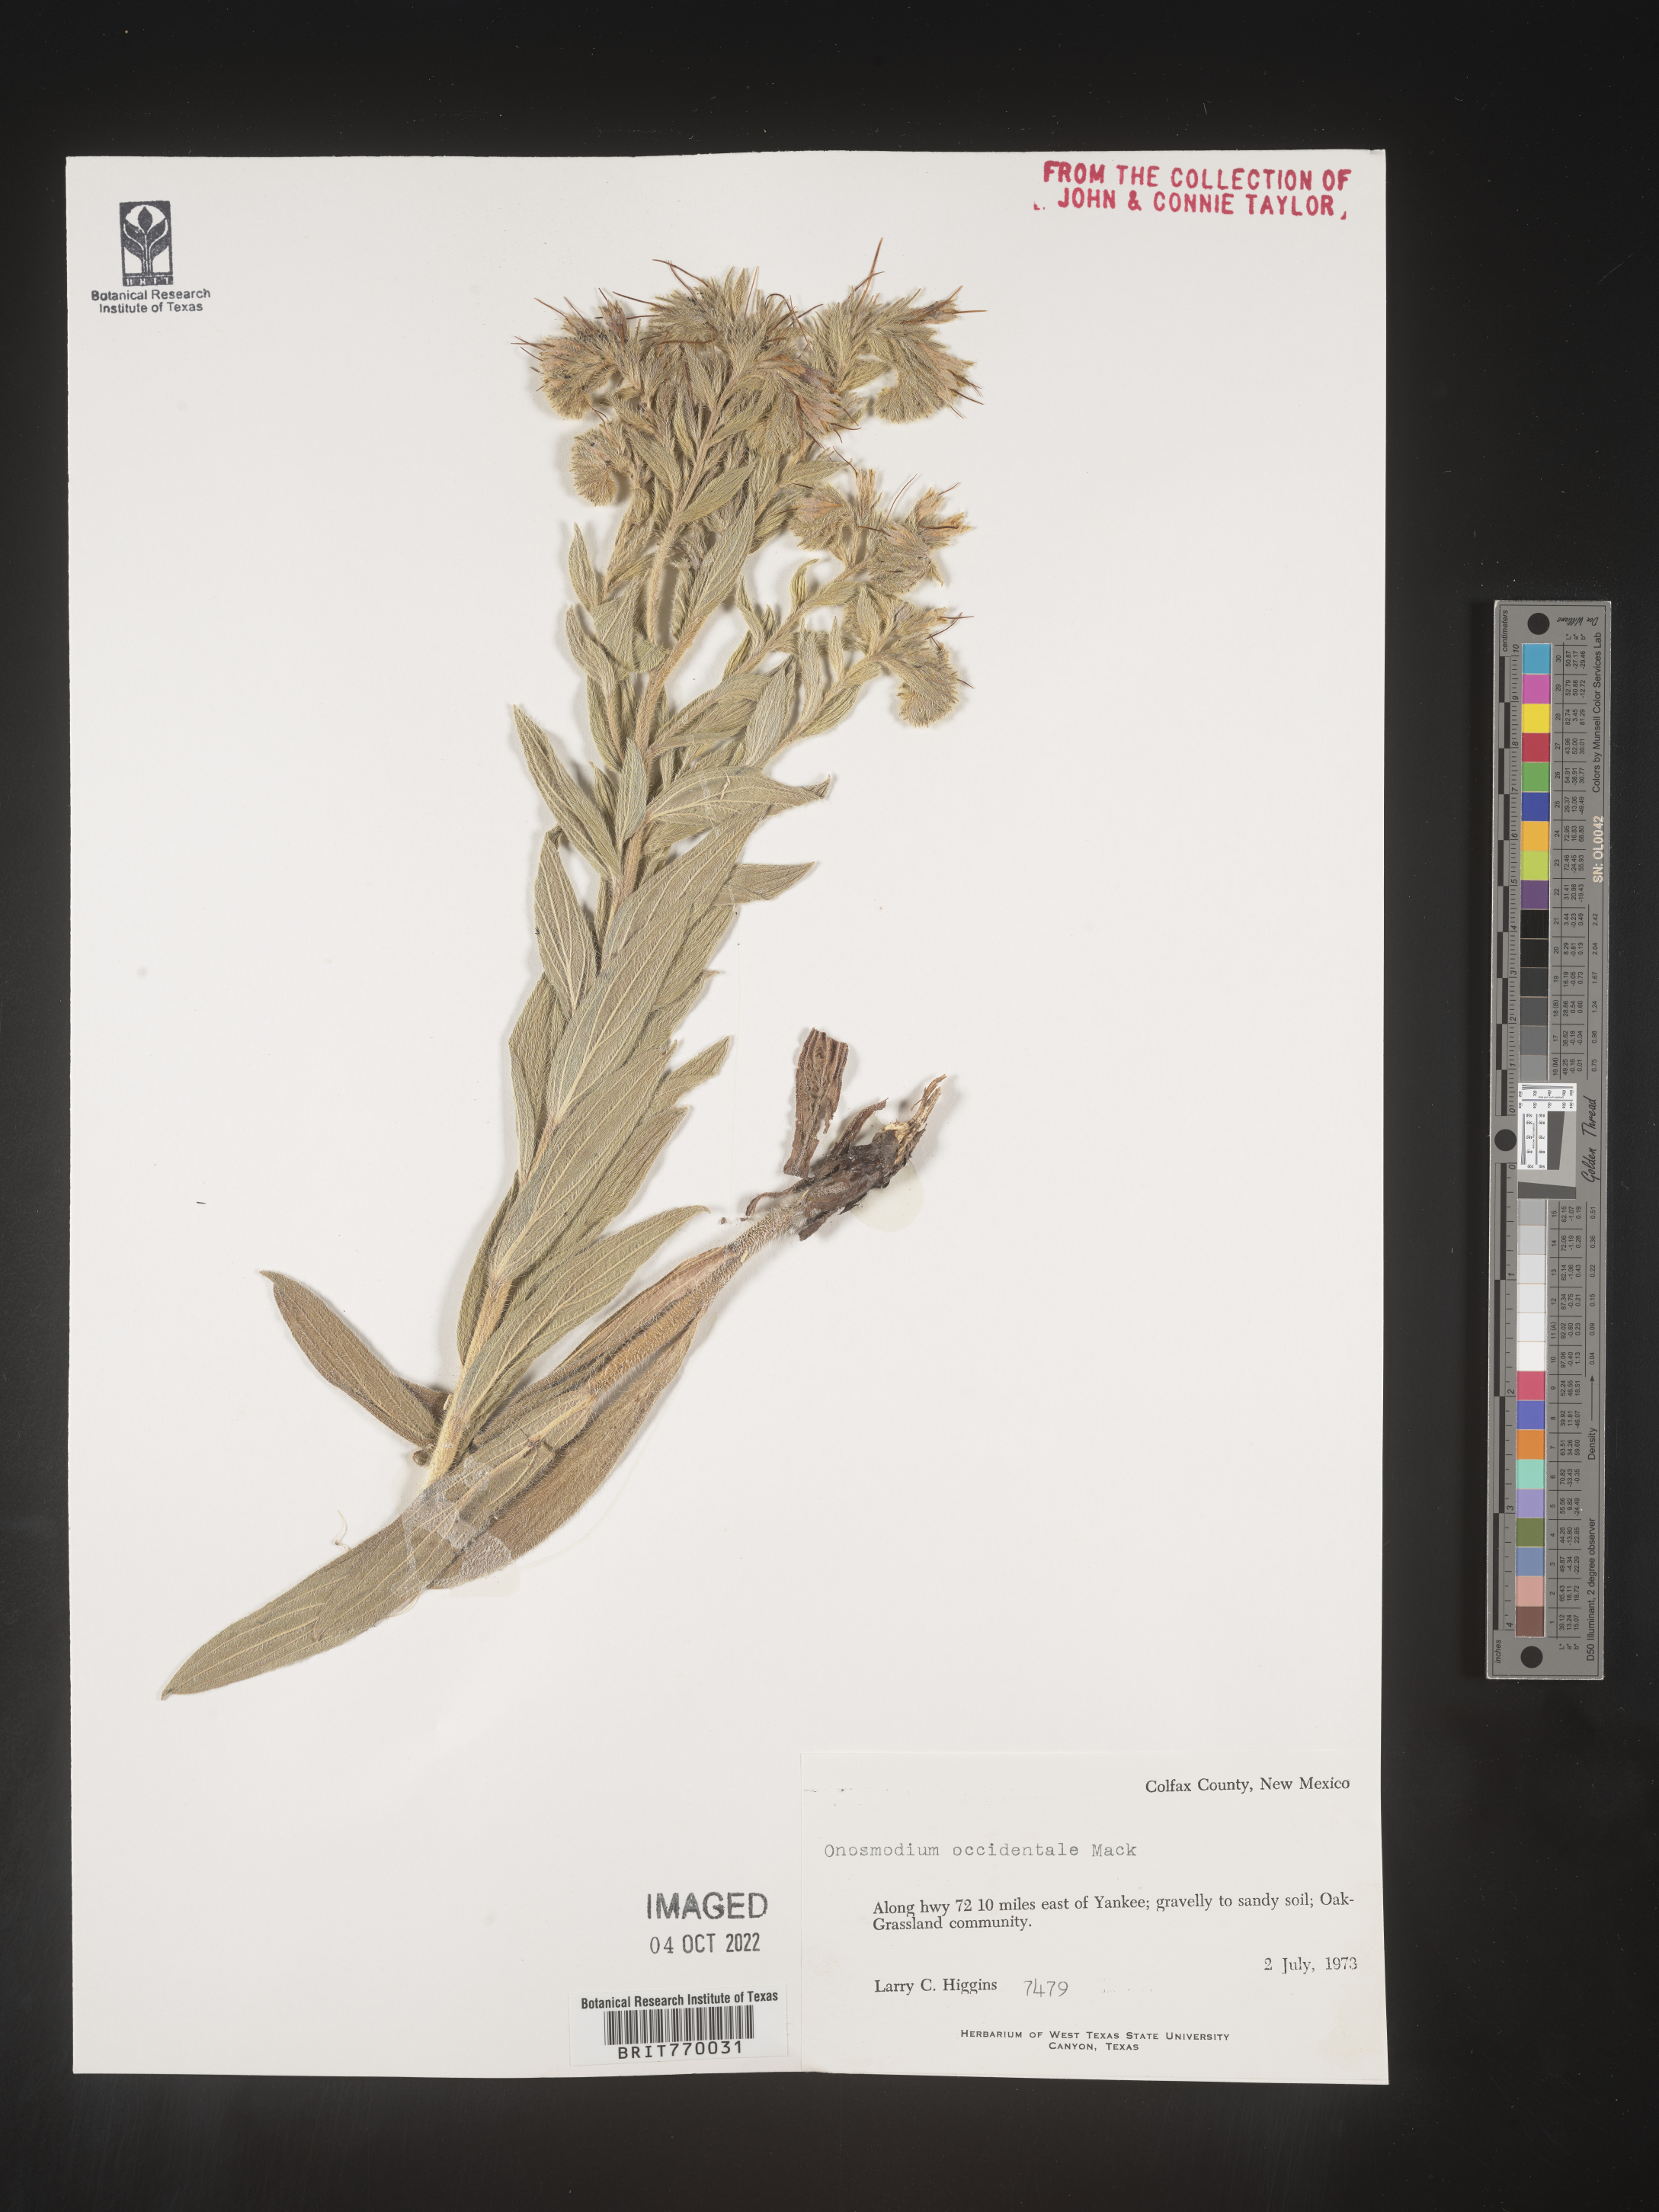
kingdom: Plantae
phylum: Tracheophyta
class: Magnoliopsida
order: Boraginales
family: Boraginaceae
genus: Lithospermum
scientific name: Lithospermum occidentale
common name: Western false gromwell
